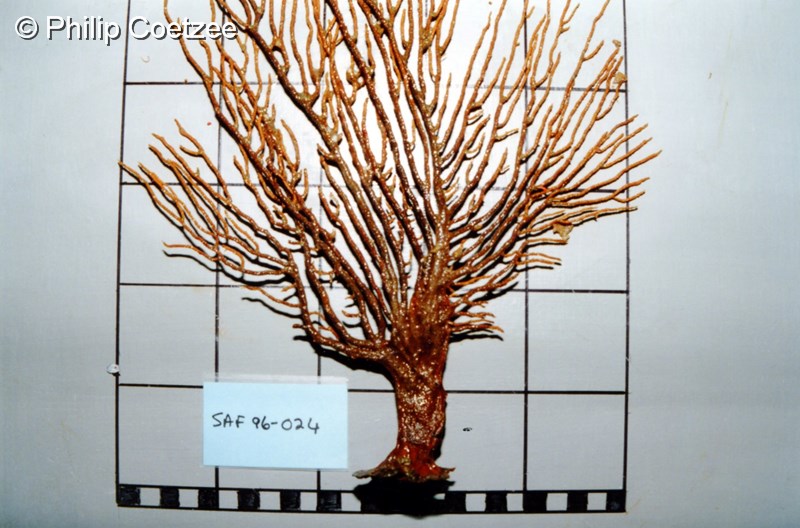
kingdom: Animalia
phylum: Cnidaria
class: Hydrozoa
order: Anthoathecata
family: Solanderiidae
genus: Solanderia
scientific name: Solanderia procumbens
